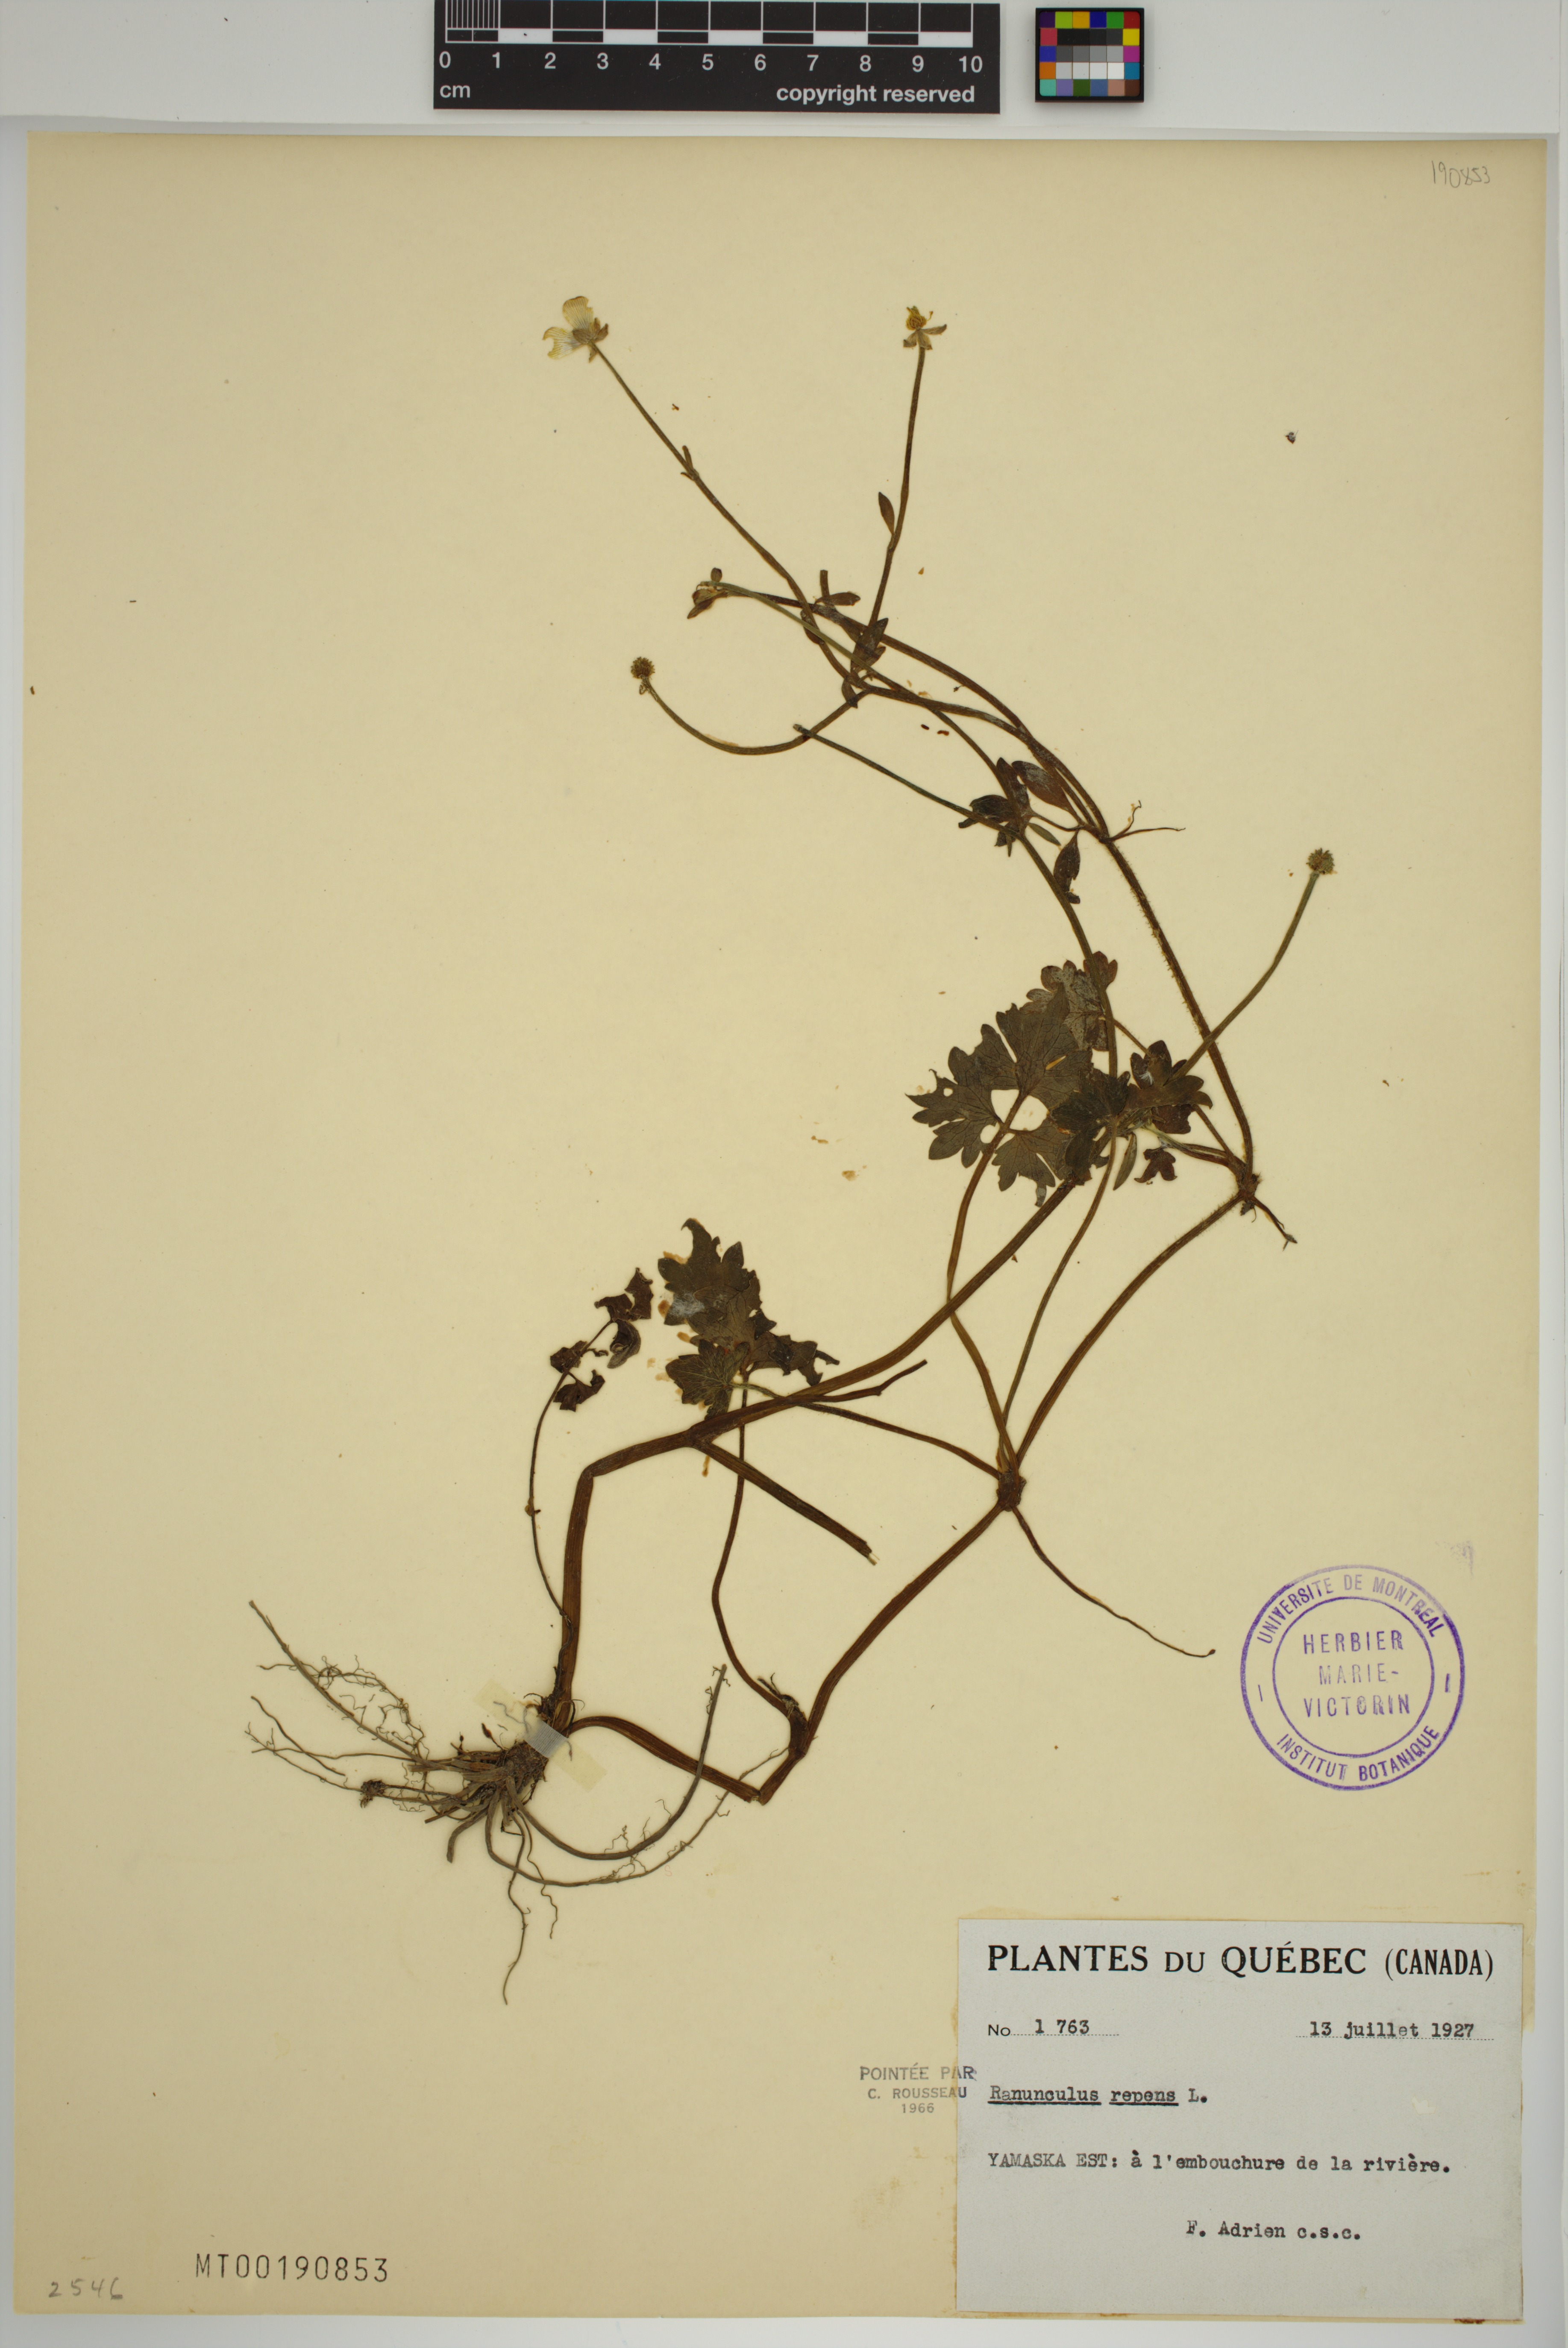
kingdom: Plantae
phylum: Tracheophyta
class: Magnoliopsida
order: Ranunculales
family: Ranunculaceae
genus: Ranunculus
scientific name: Ranunculus repens
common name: Creeping buttercup
